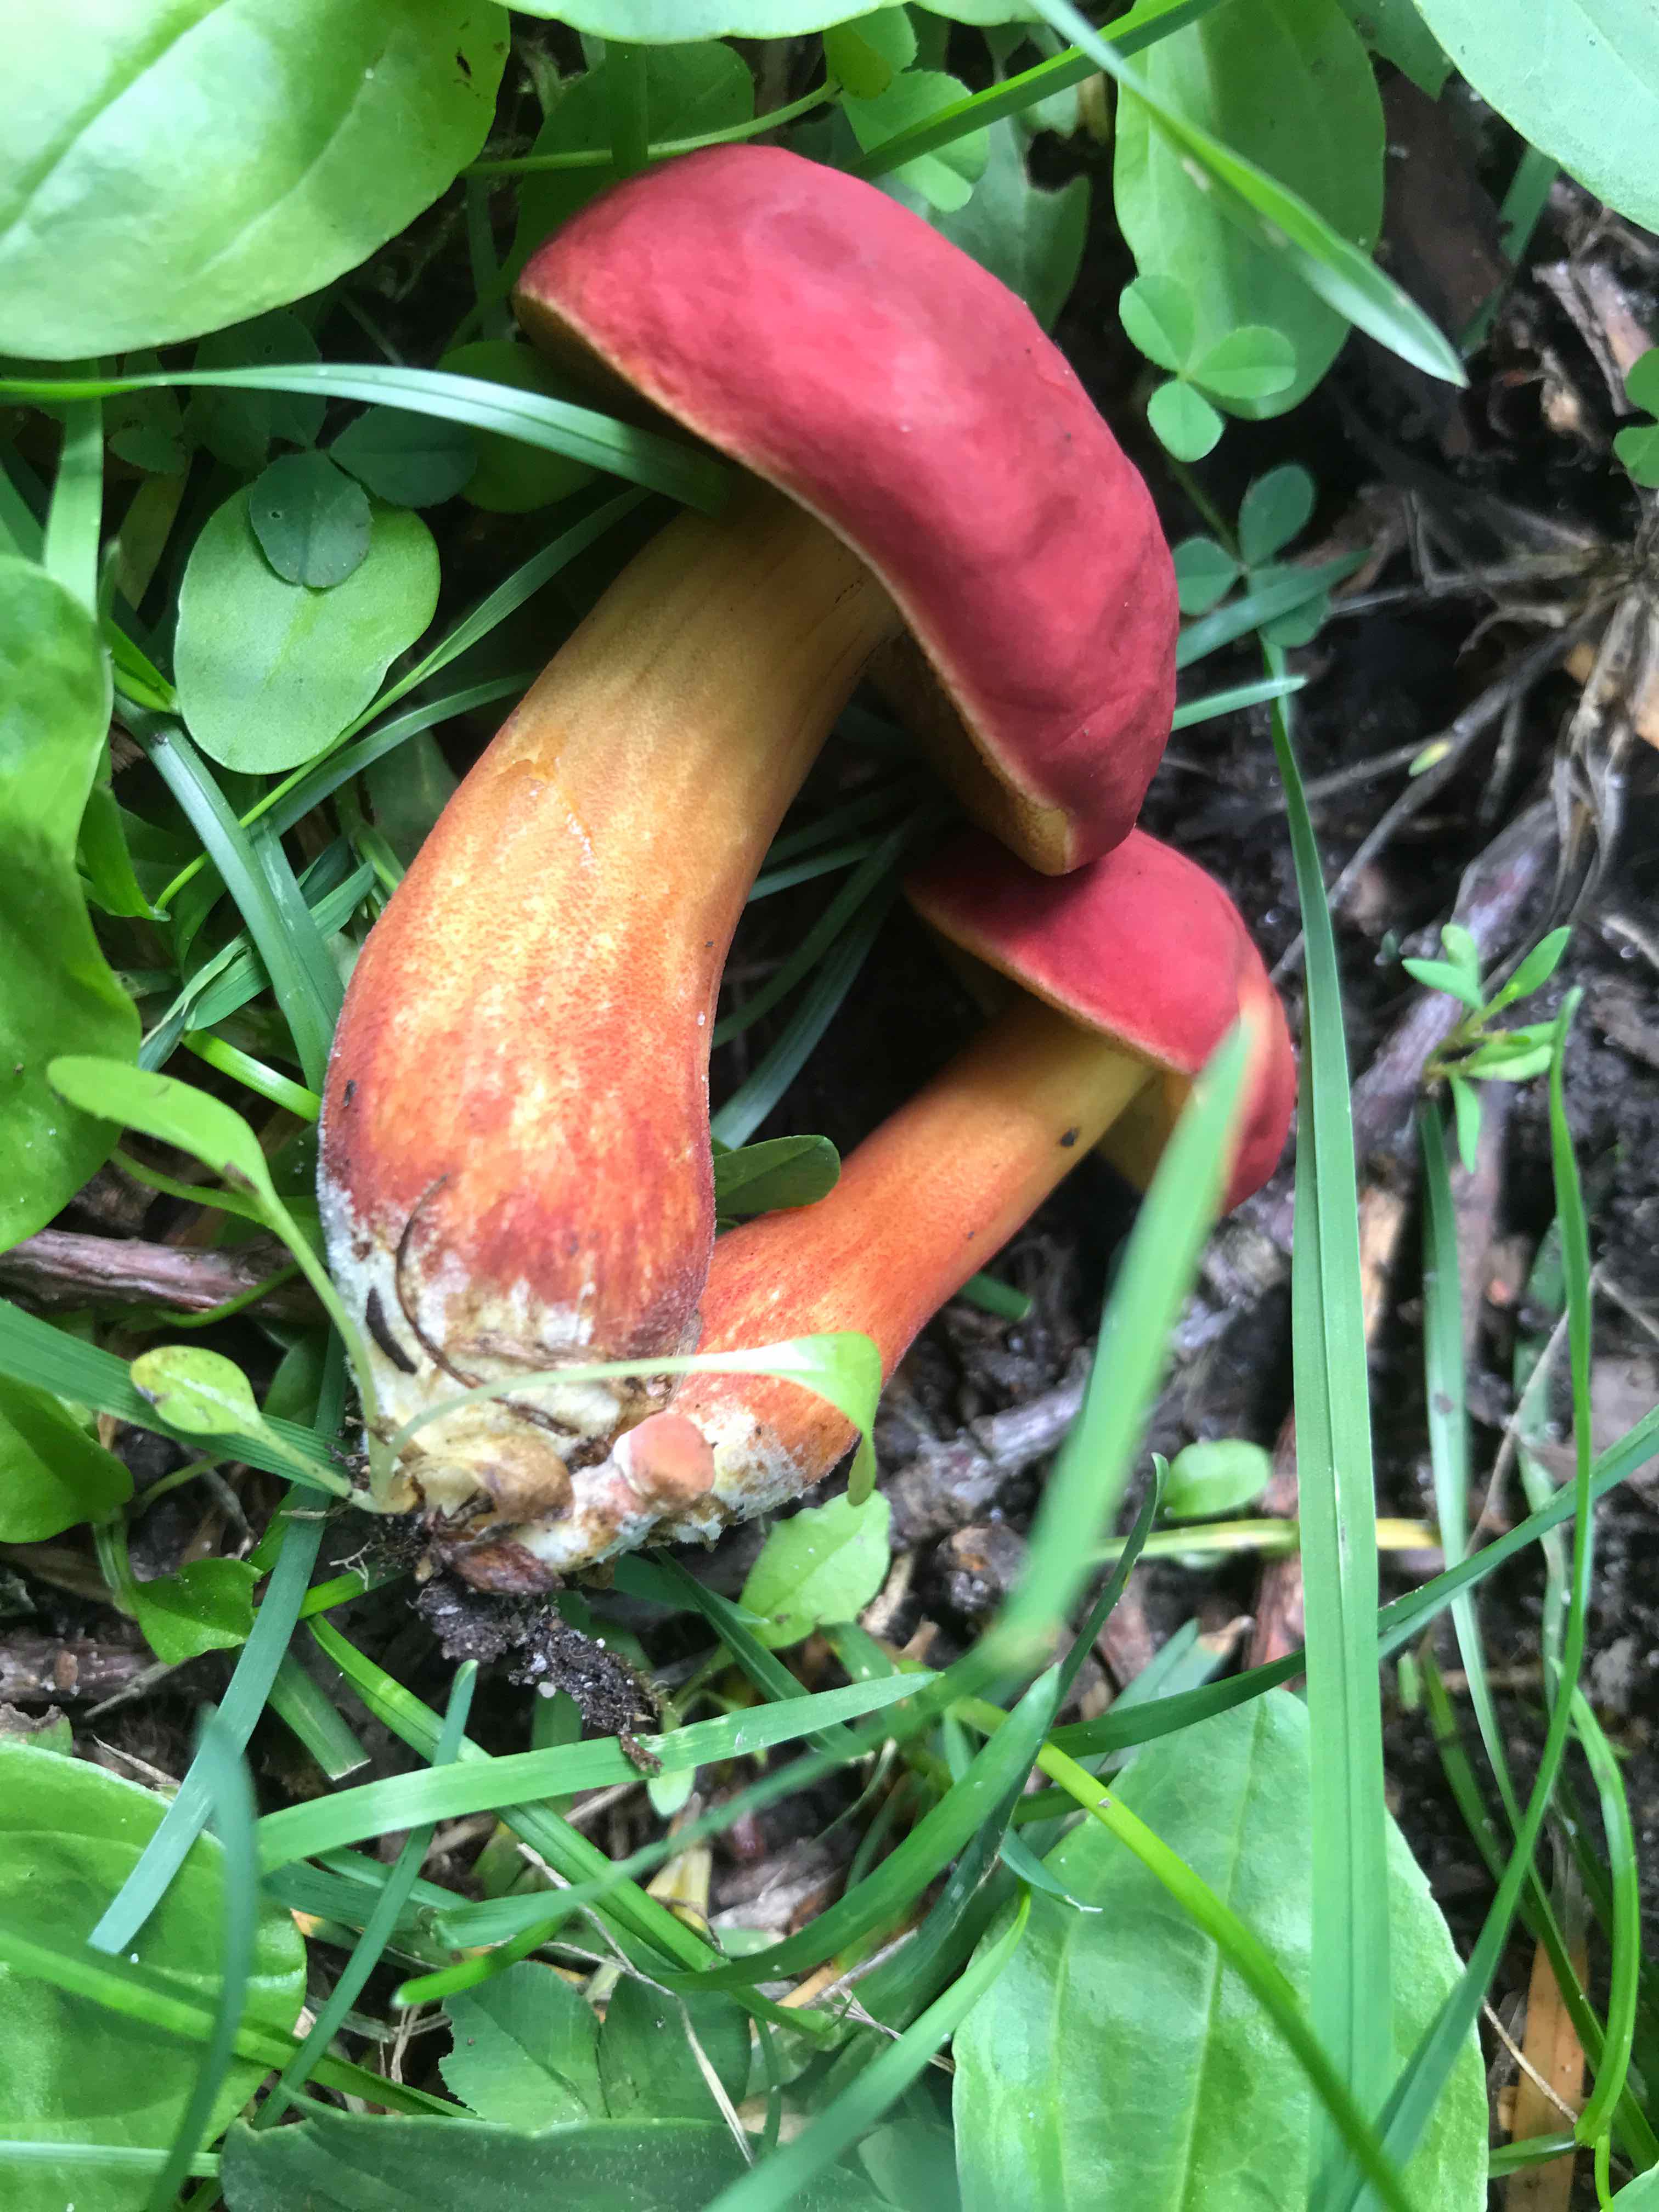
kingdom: Fungi
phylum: Basidiomycota
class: Agaricomycetes
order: Boletales
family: Boletaceae
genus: Hortiboletus
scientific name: Hortiboletus rubellus
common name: blodrød rørhat
